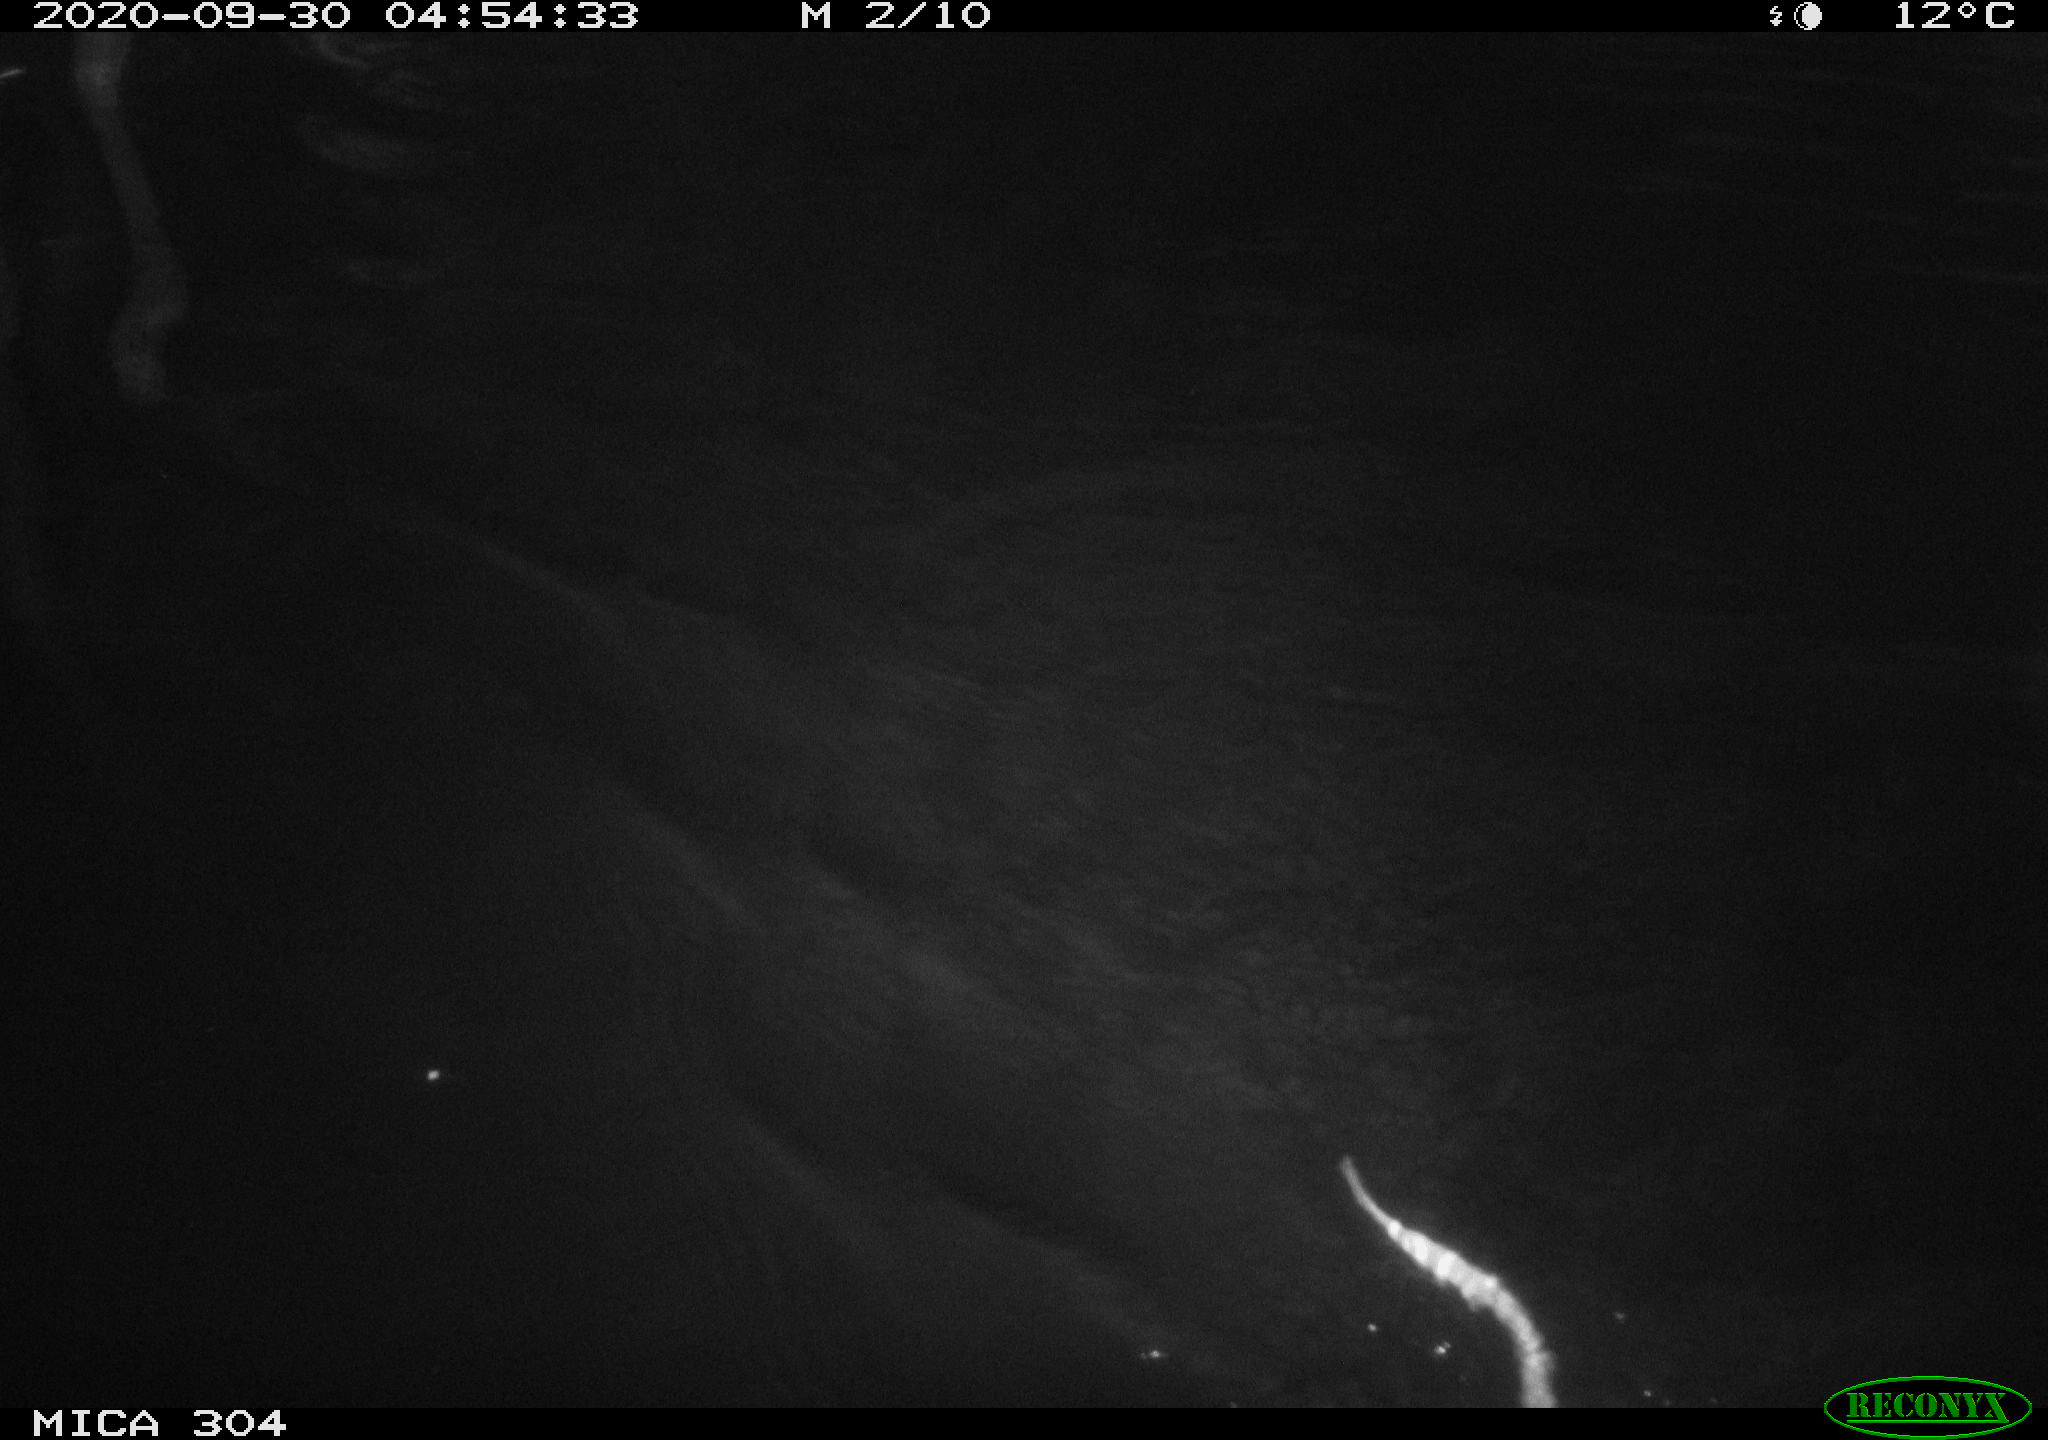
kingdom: Animalia
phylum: Chordata
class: Mammalia
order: Rodentia
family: Cricetidae
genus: Ondatra
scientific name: Ondatra zibethicus
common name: Muskrat
